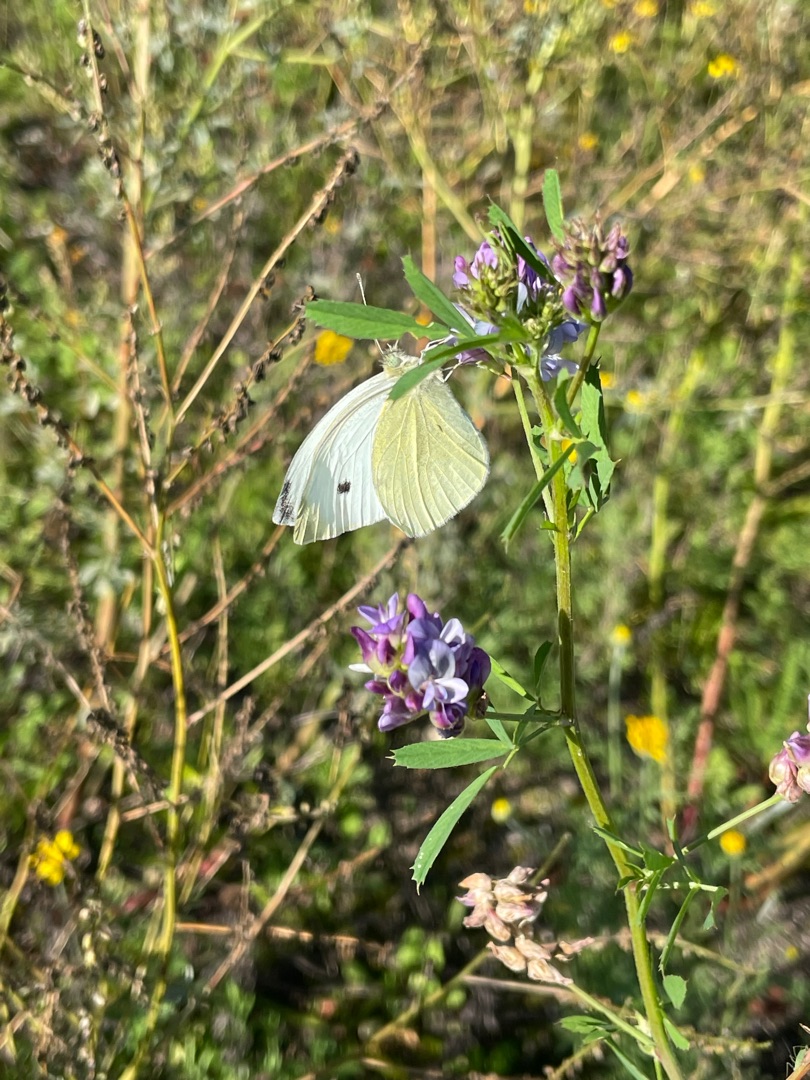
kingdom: Animalia
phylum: Arthropoda
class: Insecta
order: Lepidoptera
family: Pieridae
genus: Pieris
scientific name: Pieris rapae
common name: Lille kålsommerfugl
